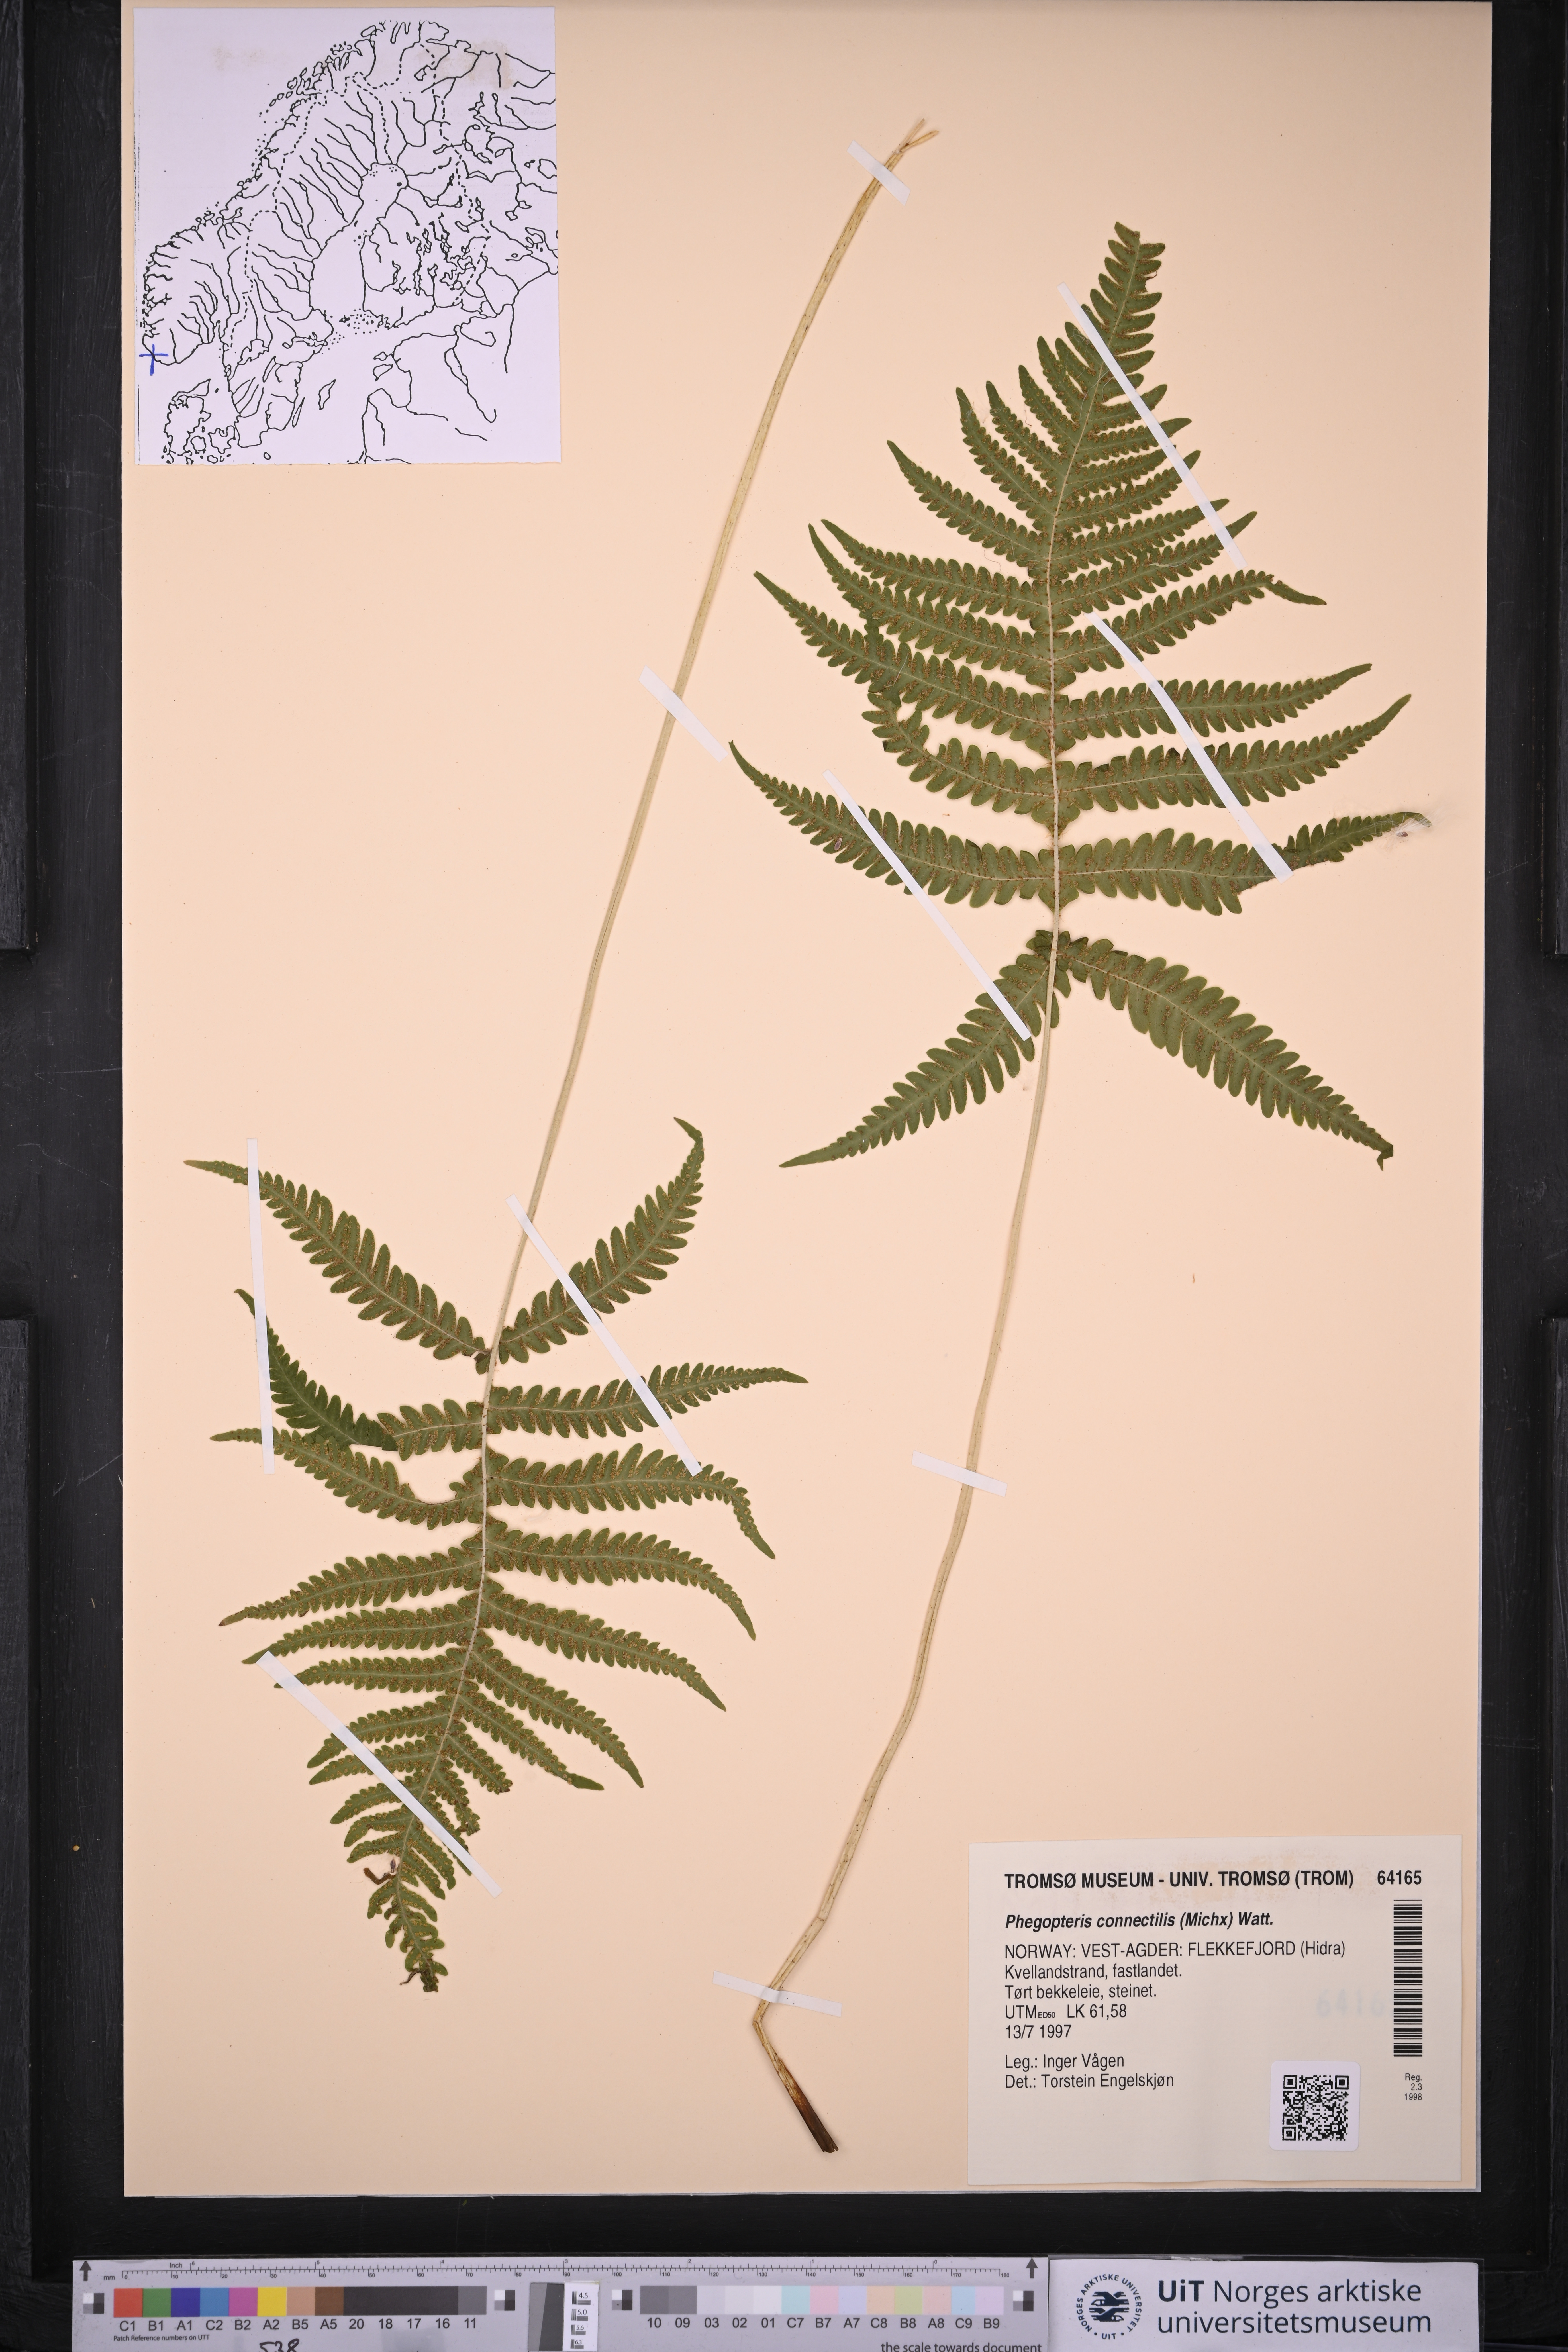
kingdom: Plantae
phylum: Tracheophyta
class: Polypodiopsida
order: Polypodiales
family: Thelypteridaceae
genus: Phegopteris
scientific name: Phegopteris connectilis
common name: Beech fern
